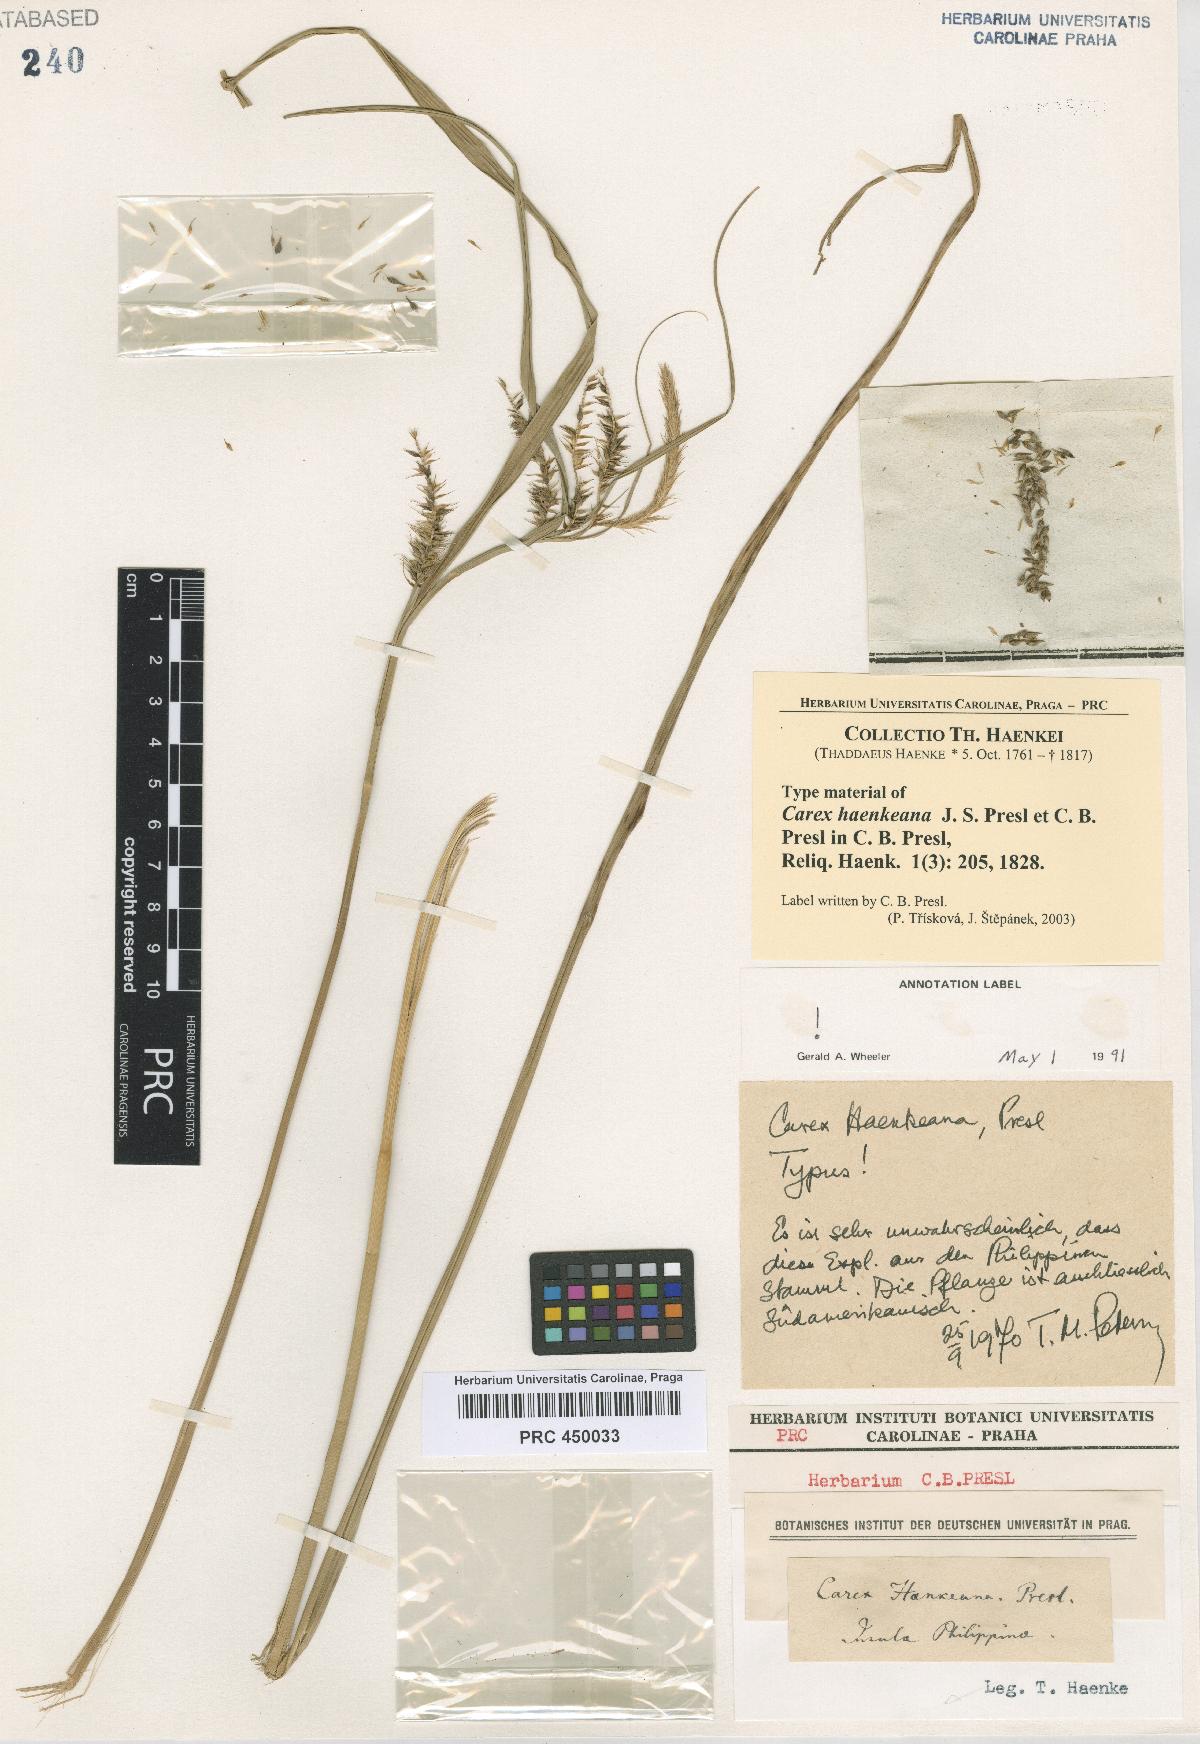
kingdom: Plantae
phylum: Tracheophyta
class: Liliopsida
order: Poales
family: Cyperaceae
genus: Carex
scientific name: Carex pseudocyperus
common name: Cyperus sedge
